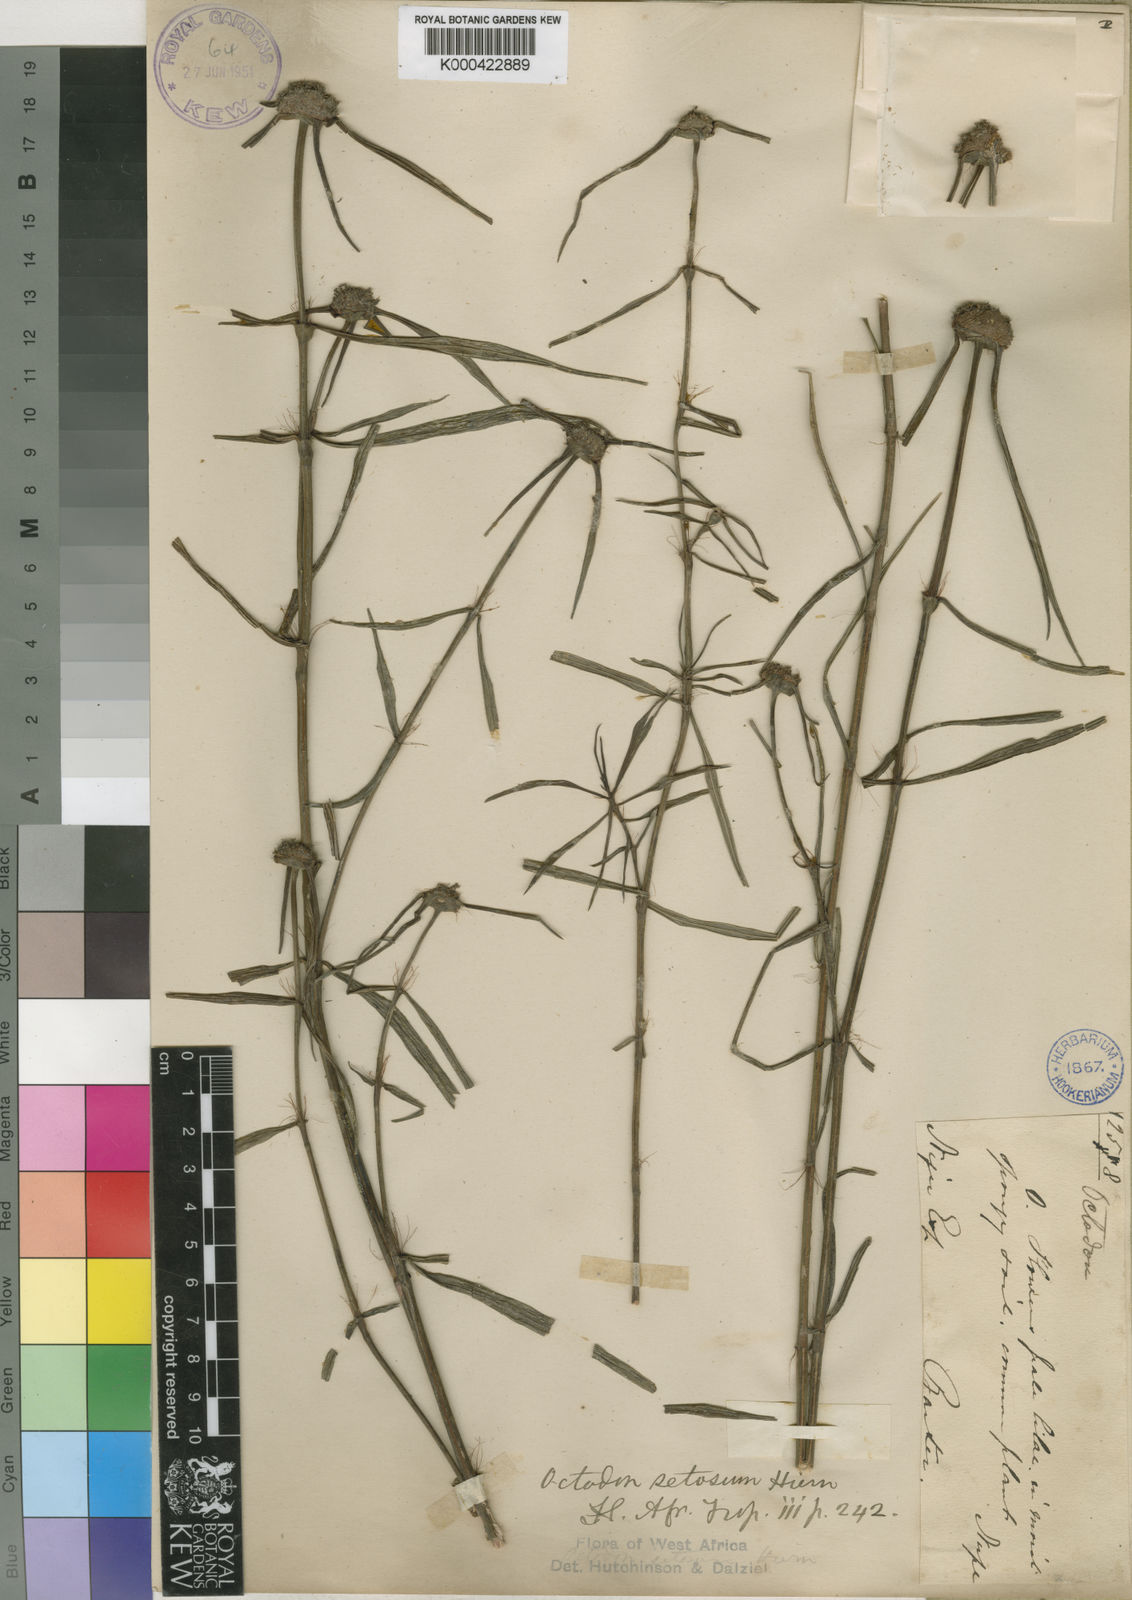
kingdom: Plantae
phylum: Tracheophyta
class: Magnoliopsida
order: Gentianales
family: Rubiaceae
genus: Spermacoce
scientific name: Spermacoce octodon
